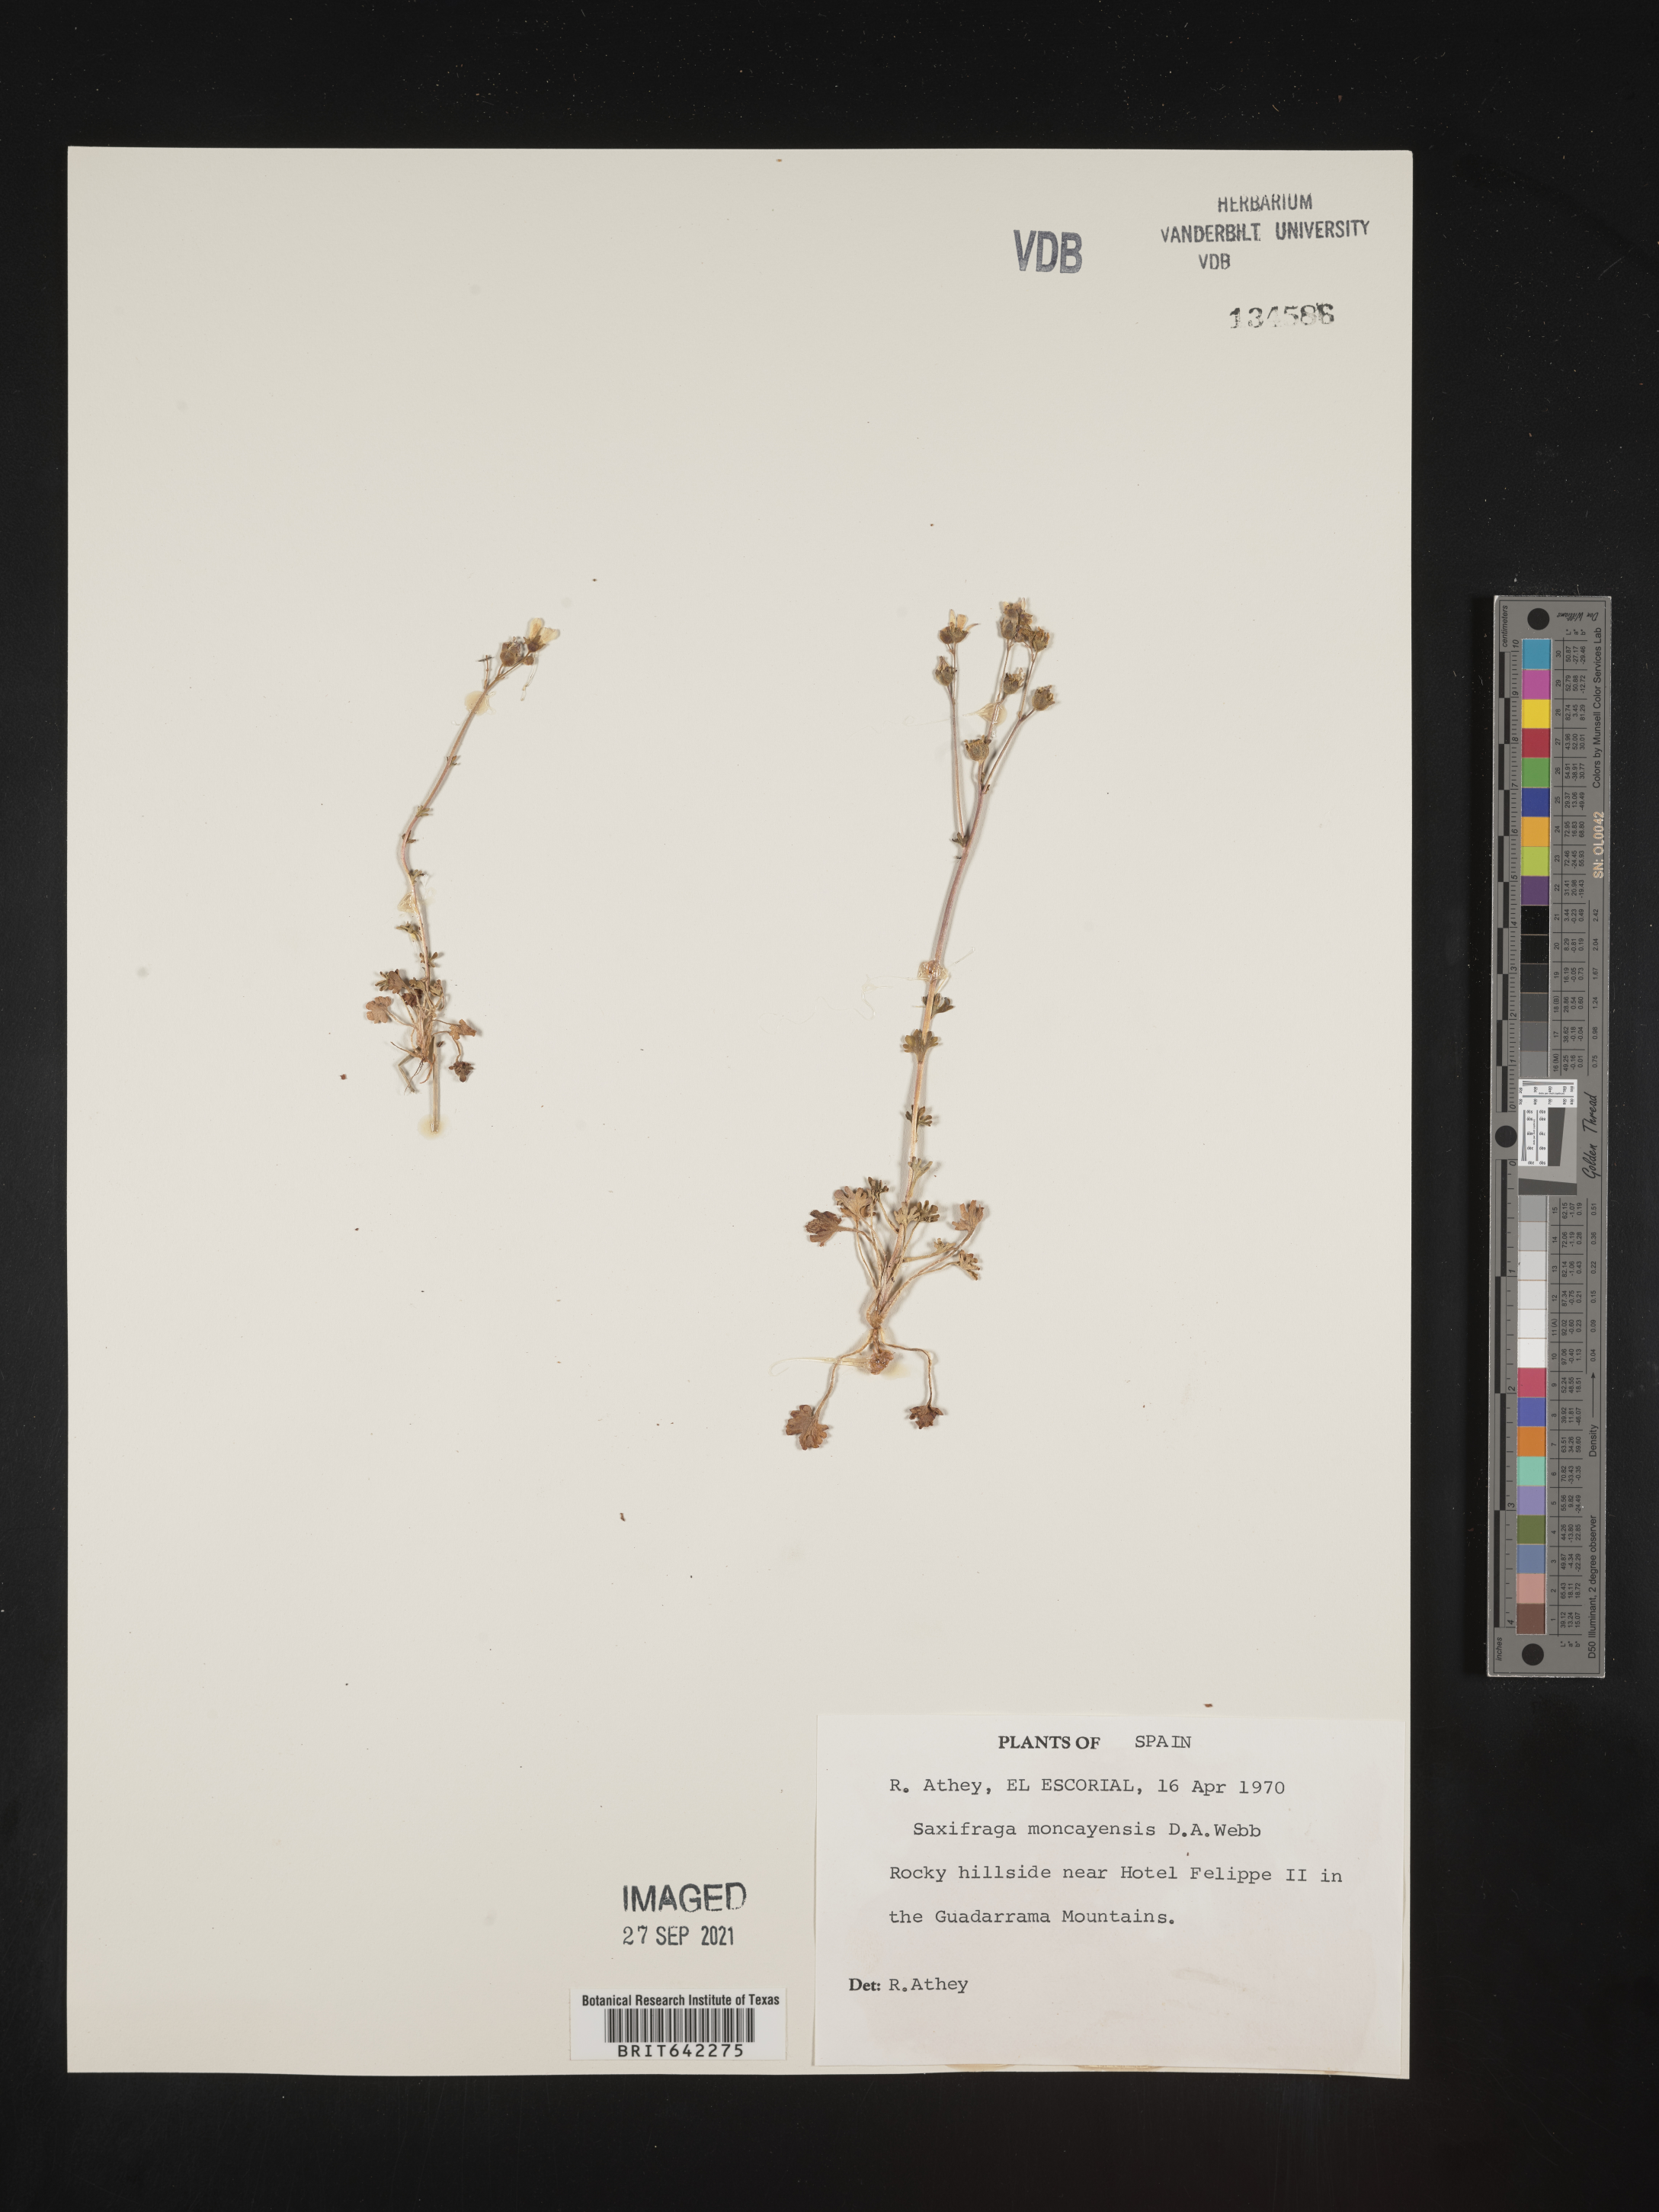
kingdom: Plantae
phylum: Tracheophyta
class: Magnoliopsida
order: Saxifragales
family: Saxifragaceae
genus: Saxifraga
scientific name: Saxifraga
